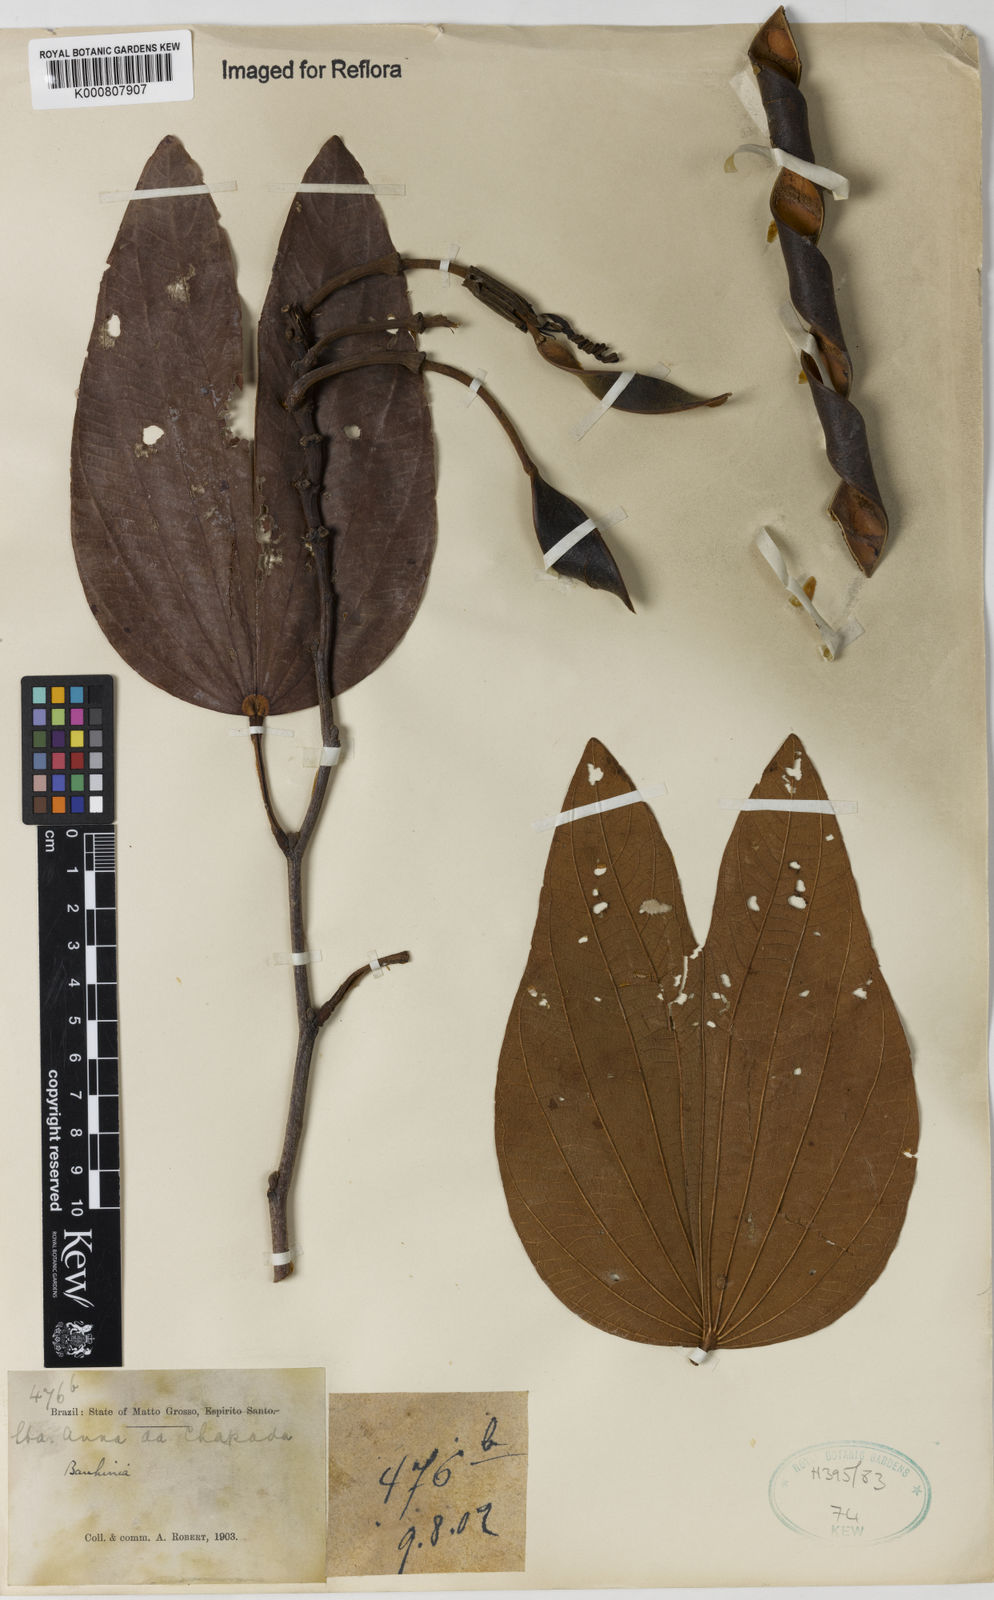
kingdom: Plantae
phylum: Tracheophyta
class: Magnoliopsida
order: Fabales
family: Fabaceae
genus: Bauhinia
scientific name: Bauhinia
